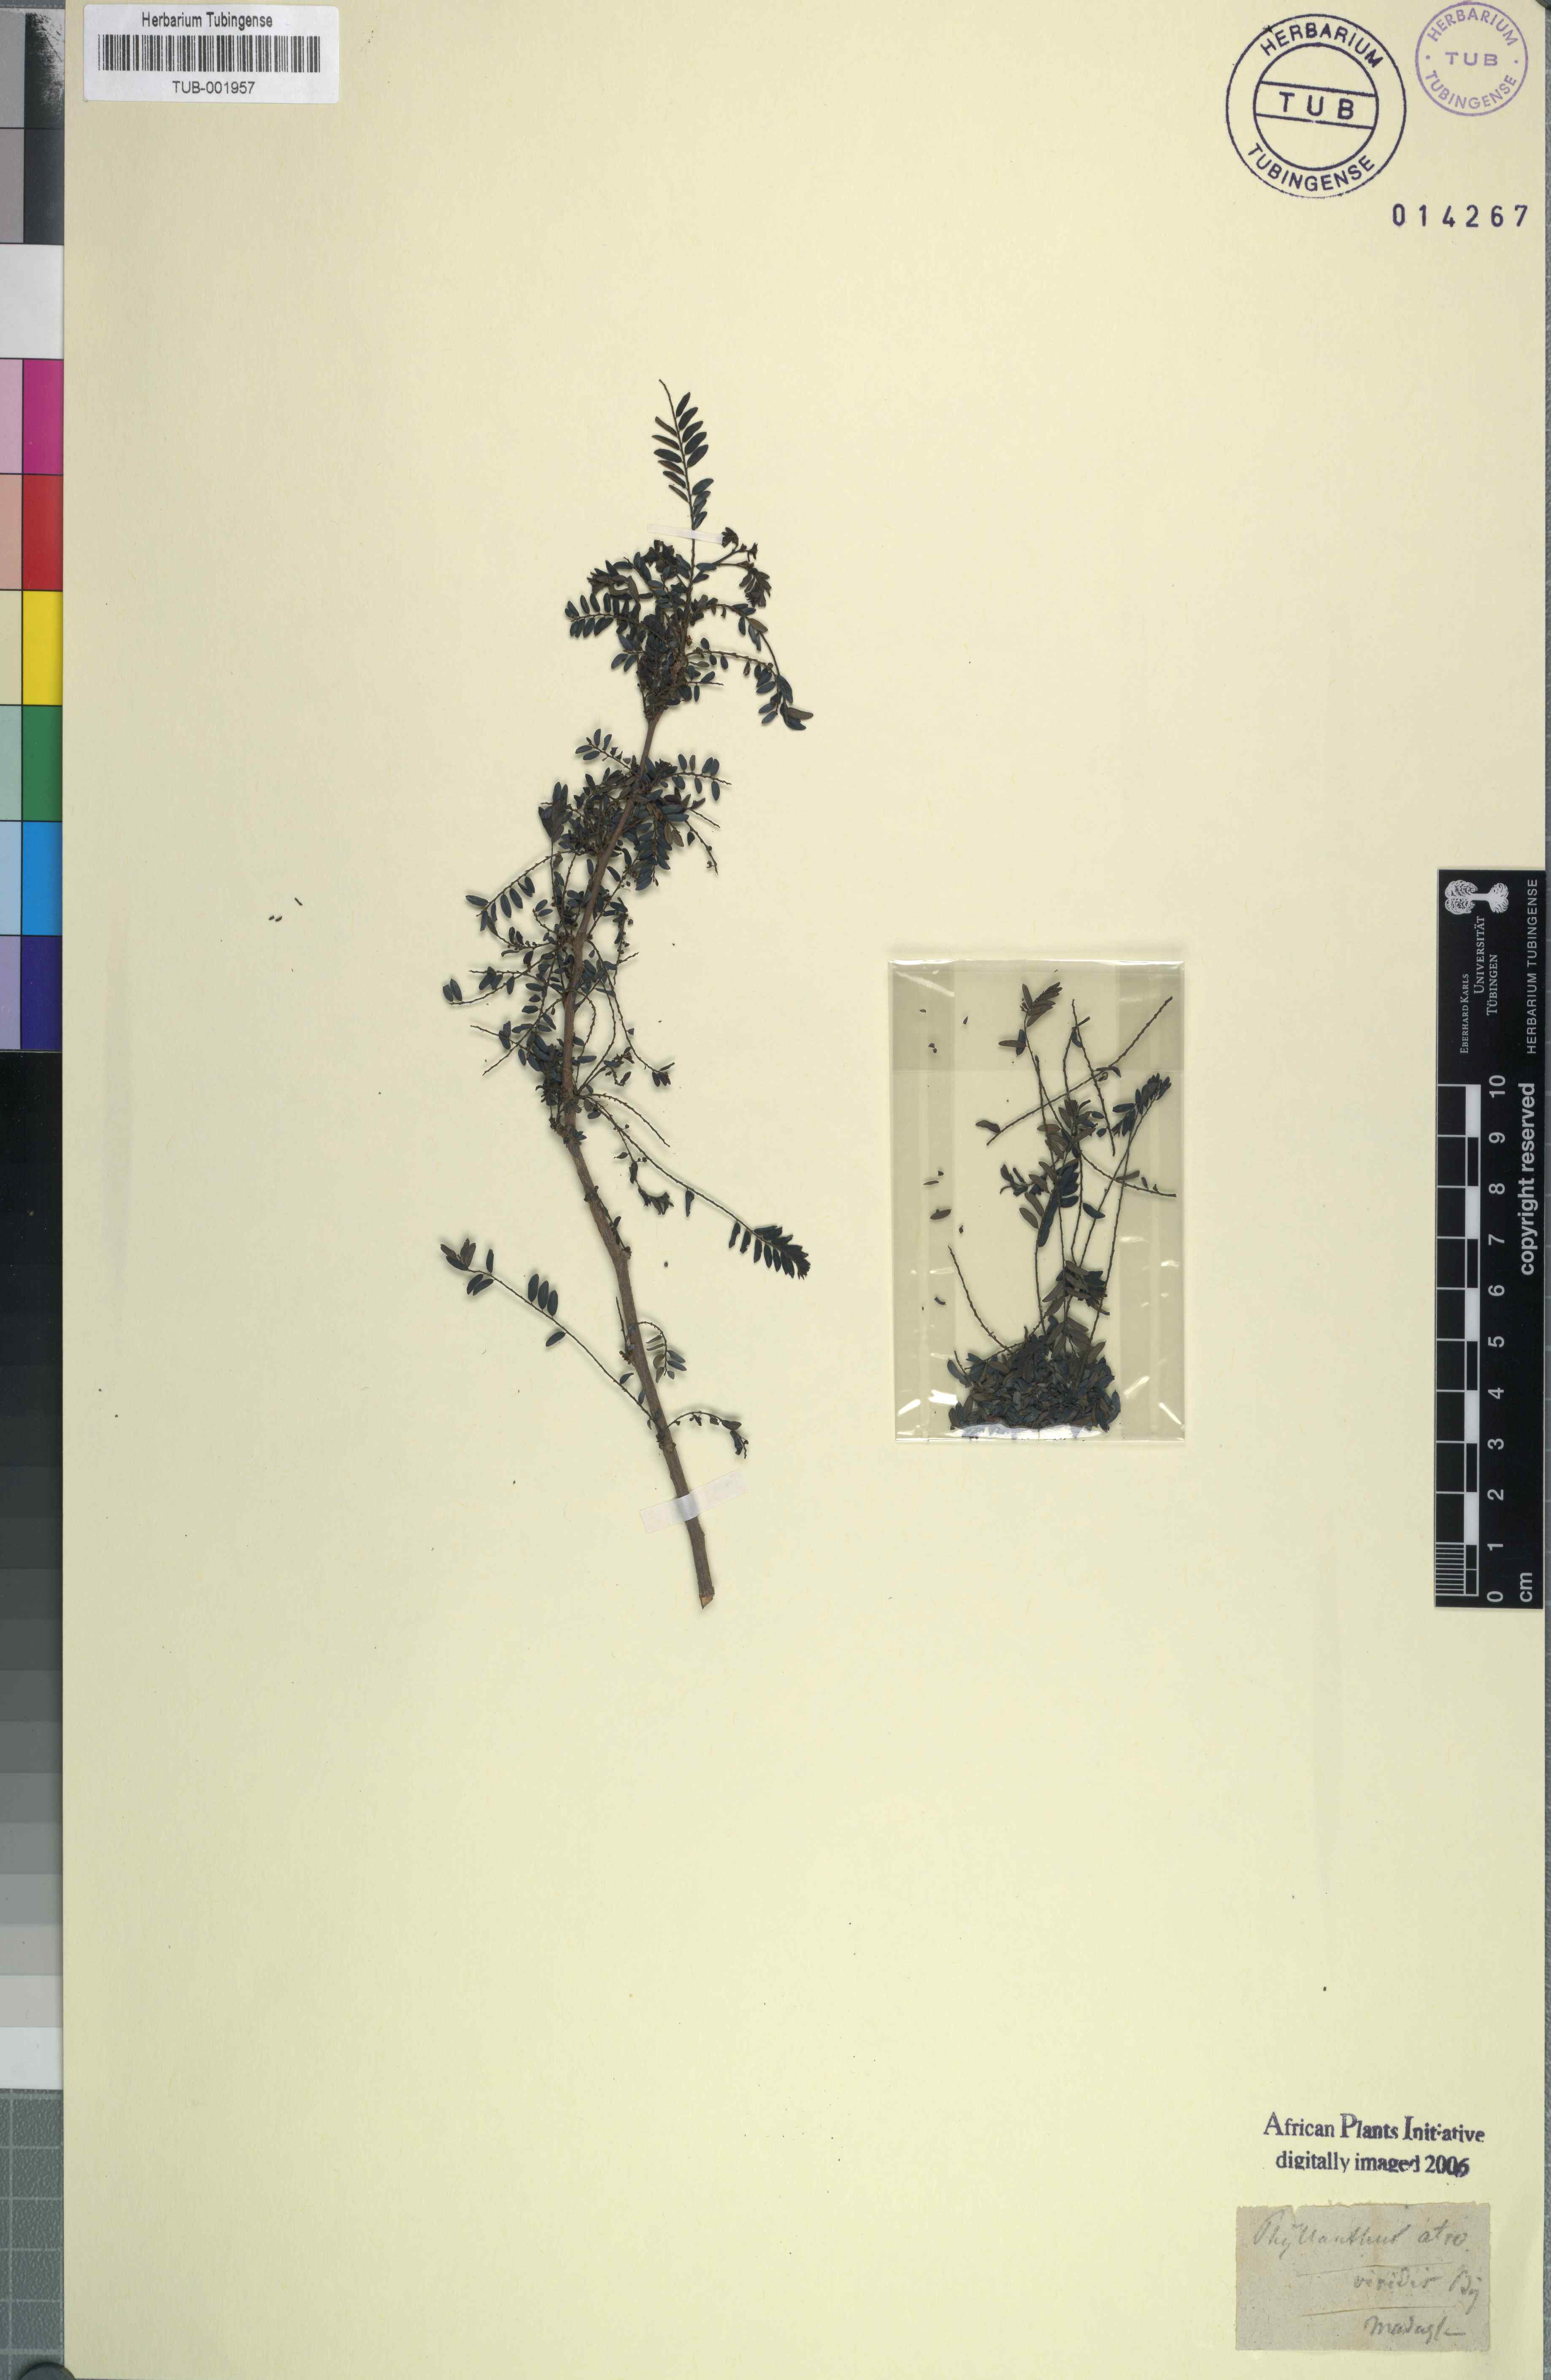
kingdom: Plantae
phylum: Tracheophyta
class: Magnoliopsida
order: Malpighiales
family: Phyllanthaceae
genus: Phyllanthus
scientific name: Phyllanthus bojerianus
